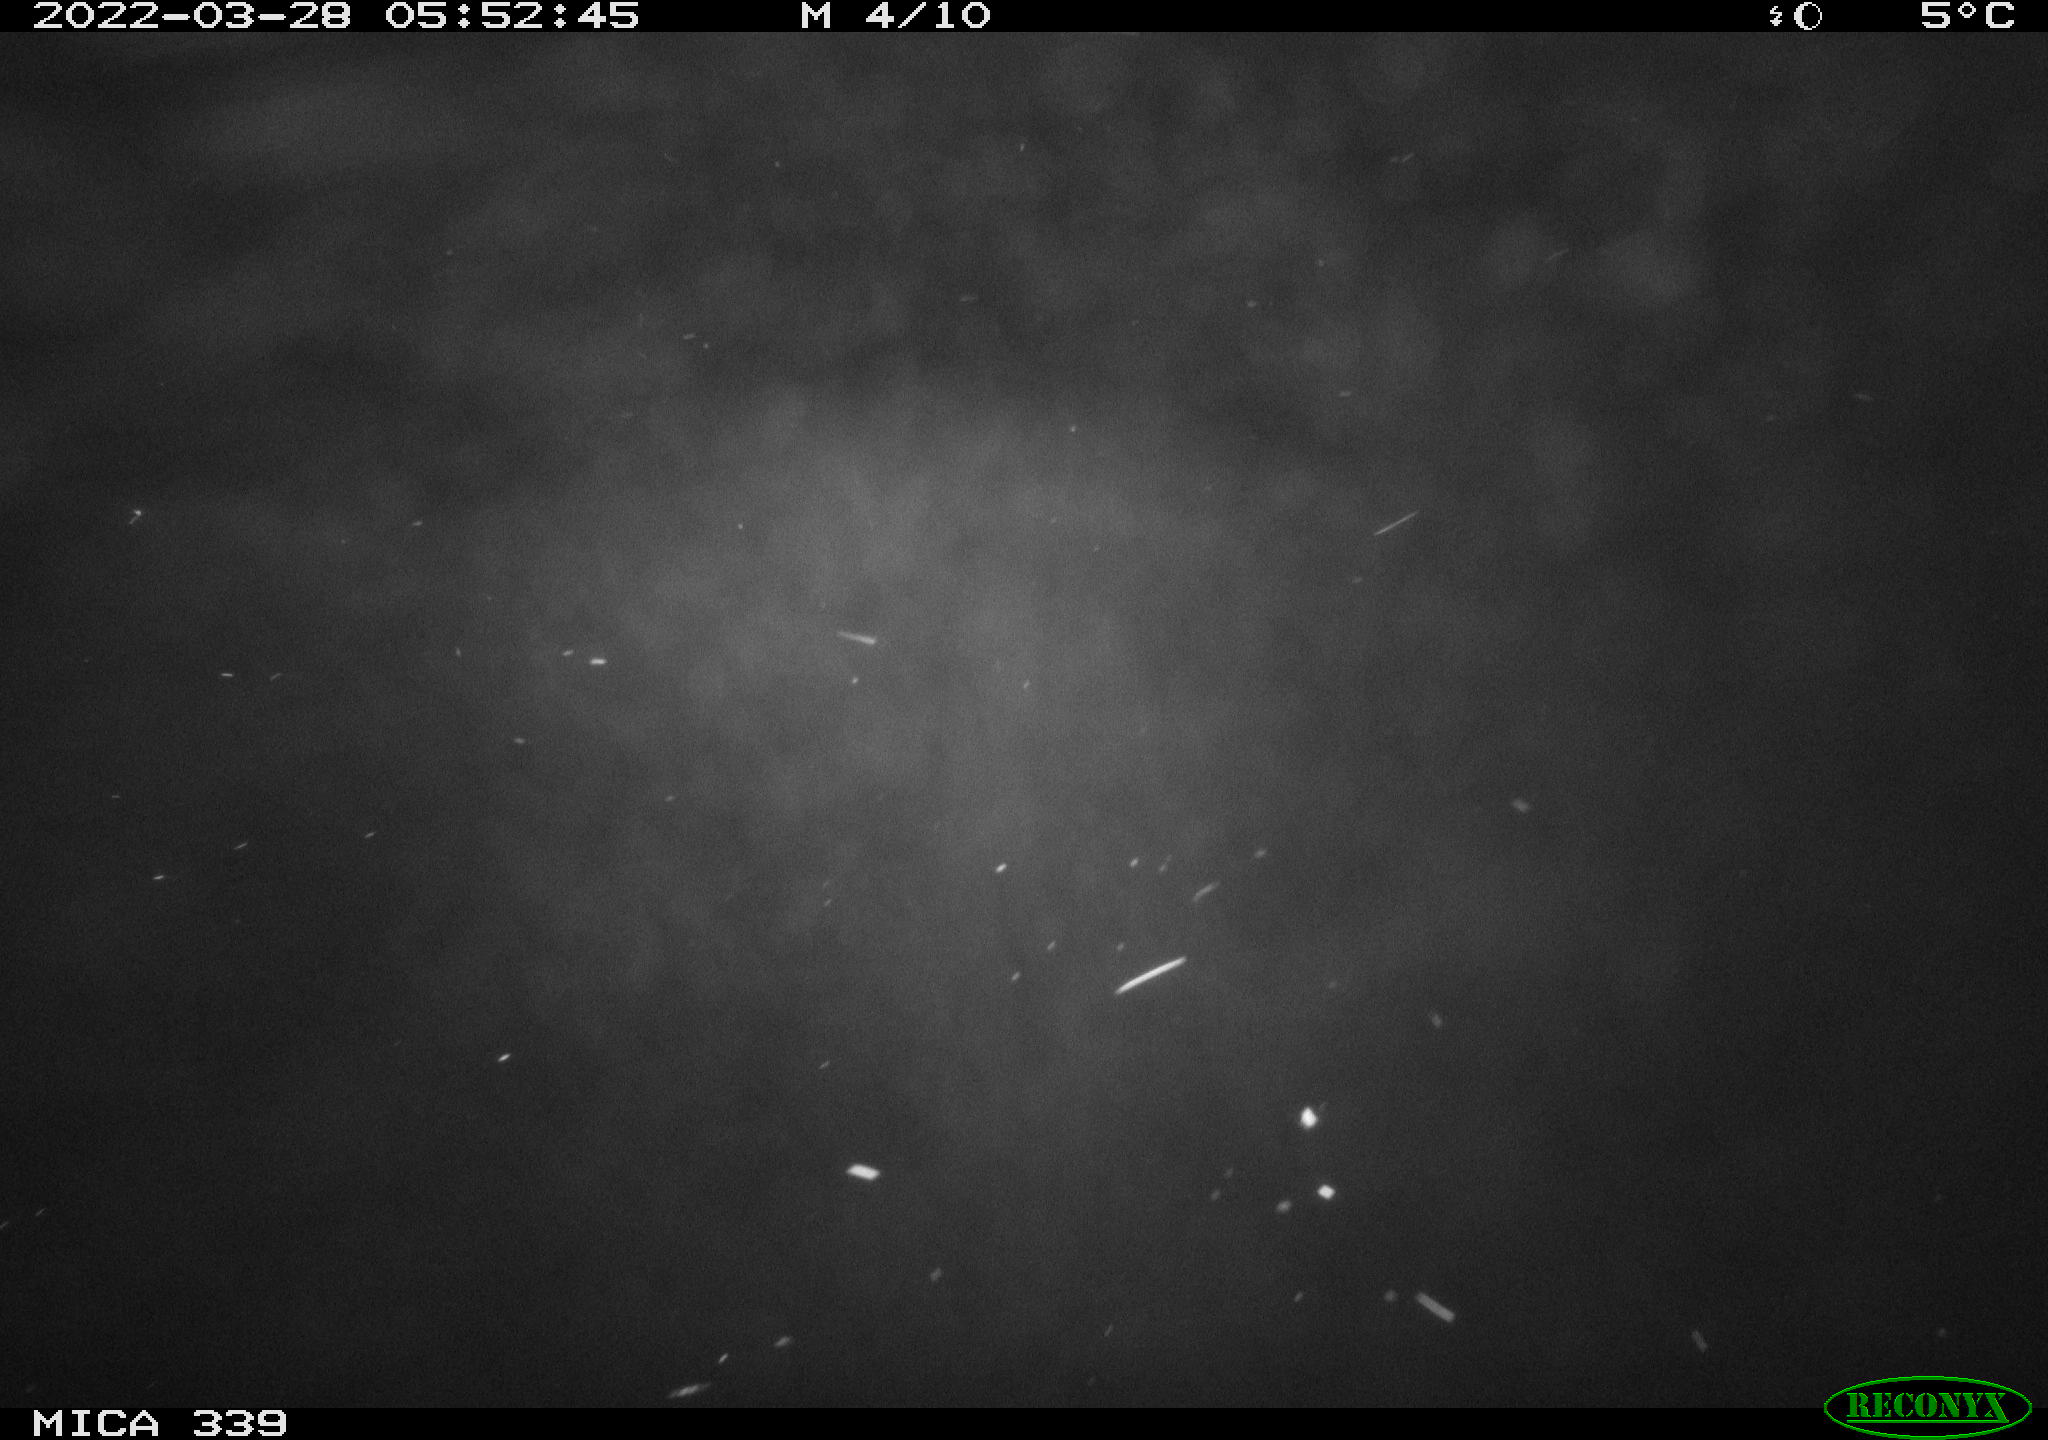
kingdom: Animalia
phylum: Chordata
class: Aves
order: Anseriformes
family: Anatidae
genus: Anas
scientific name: Anas platyrhynchos
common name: Mallard
